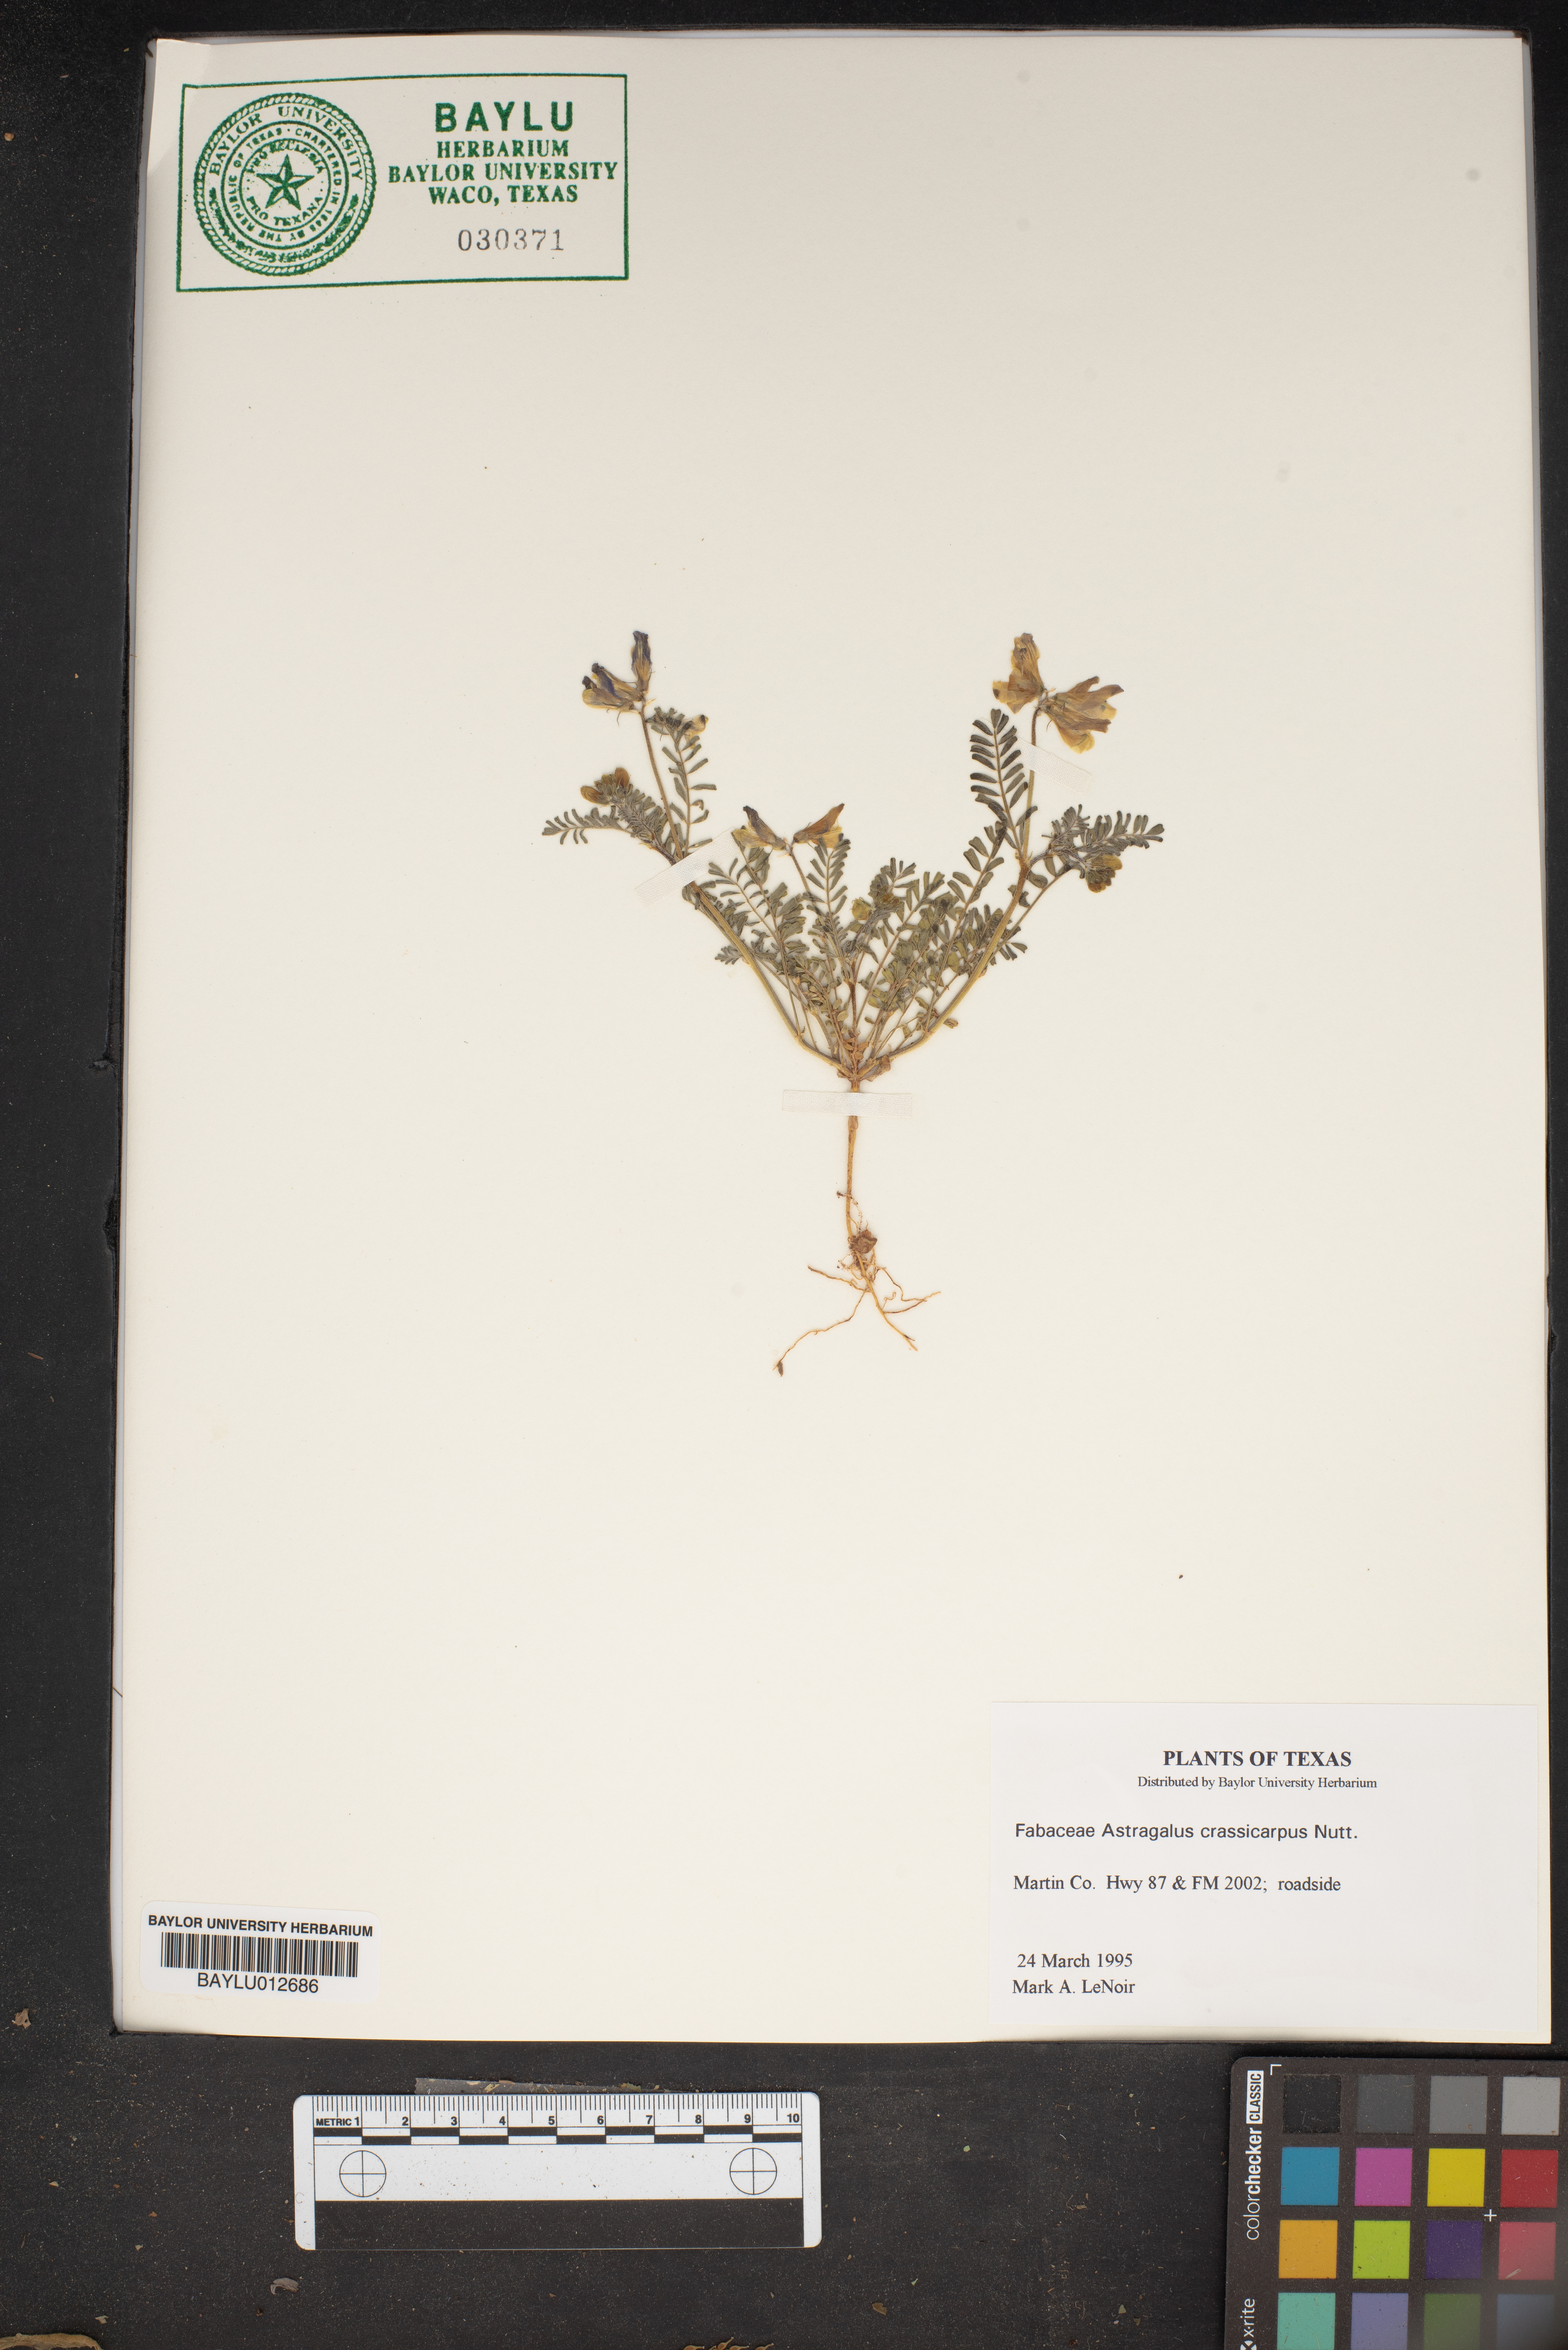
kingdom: Plantae
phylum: Tracheophyta
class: Magnoliopsida
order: Fabales
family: Fabaceae
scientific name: Fabaceae
